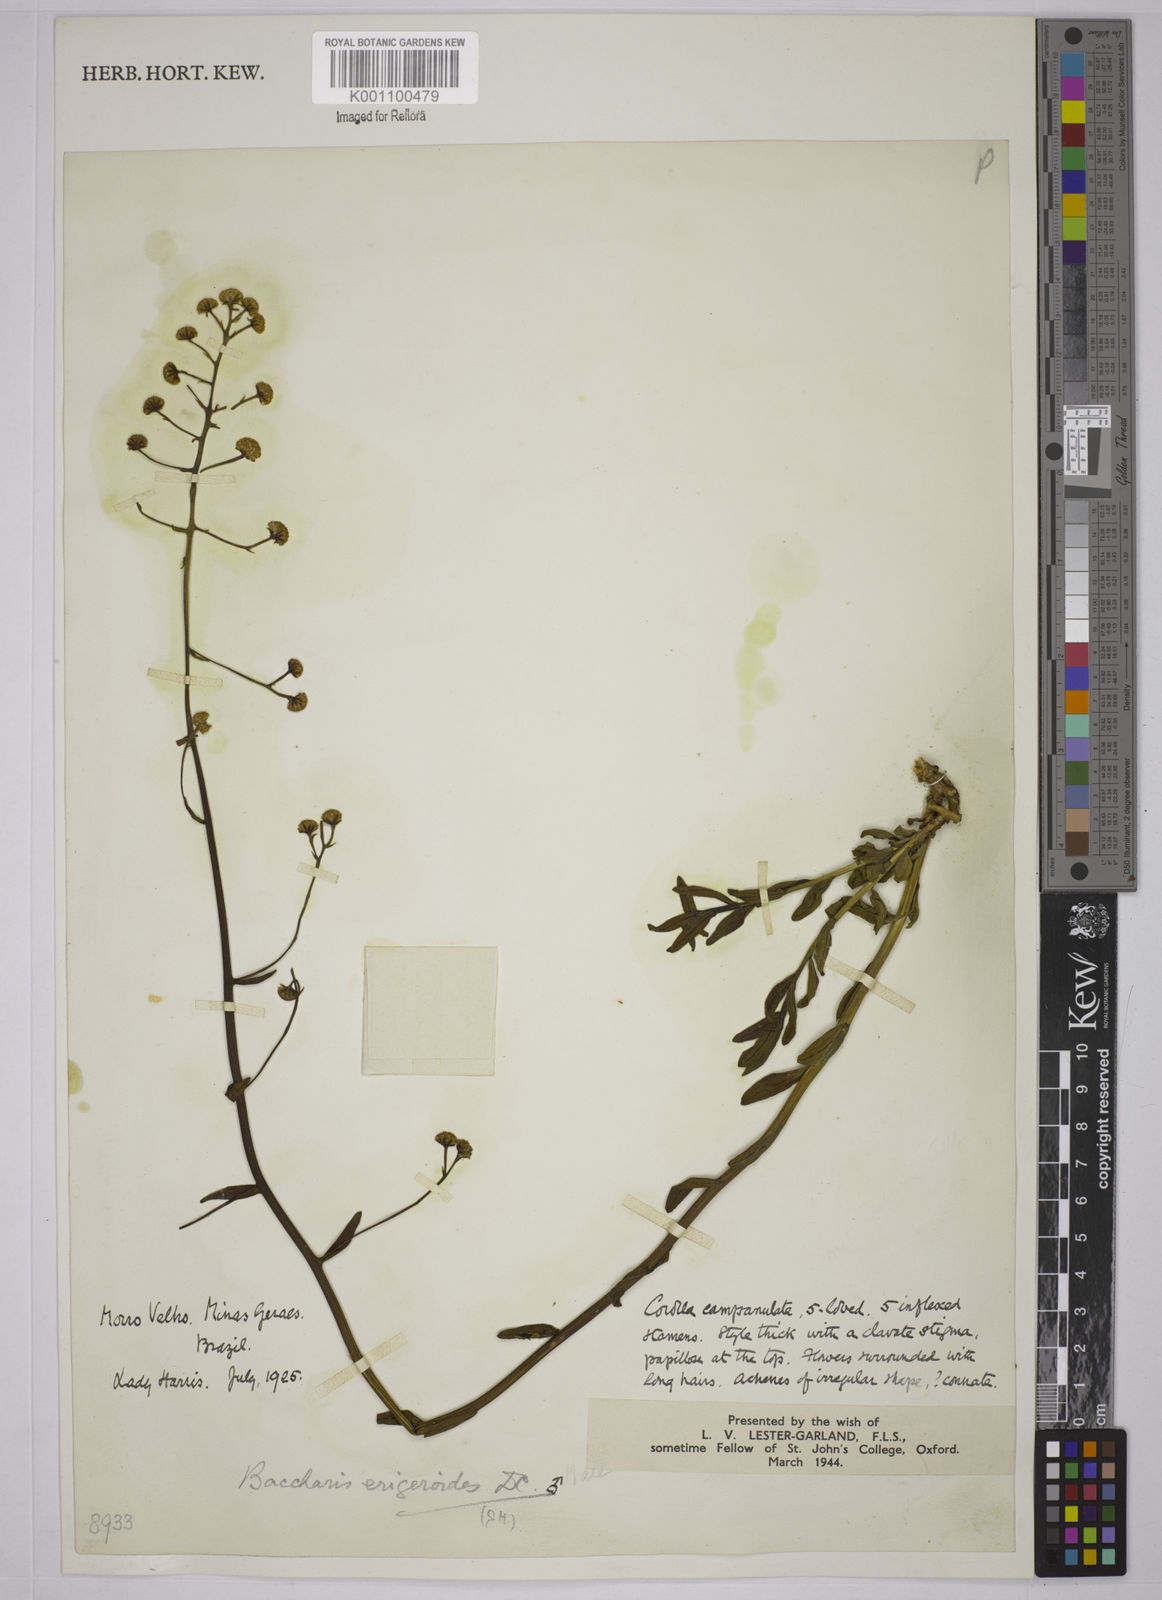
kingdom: Plantae
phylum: Tracheophyta
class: Magnoliopsida
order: Asterales
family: Asteraceae
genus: Baccharis
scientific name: Baccharis erigeroides
